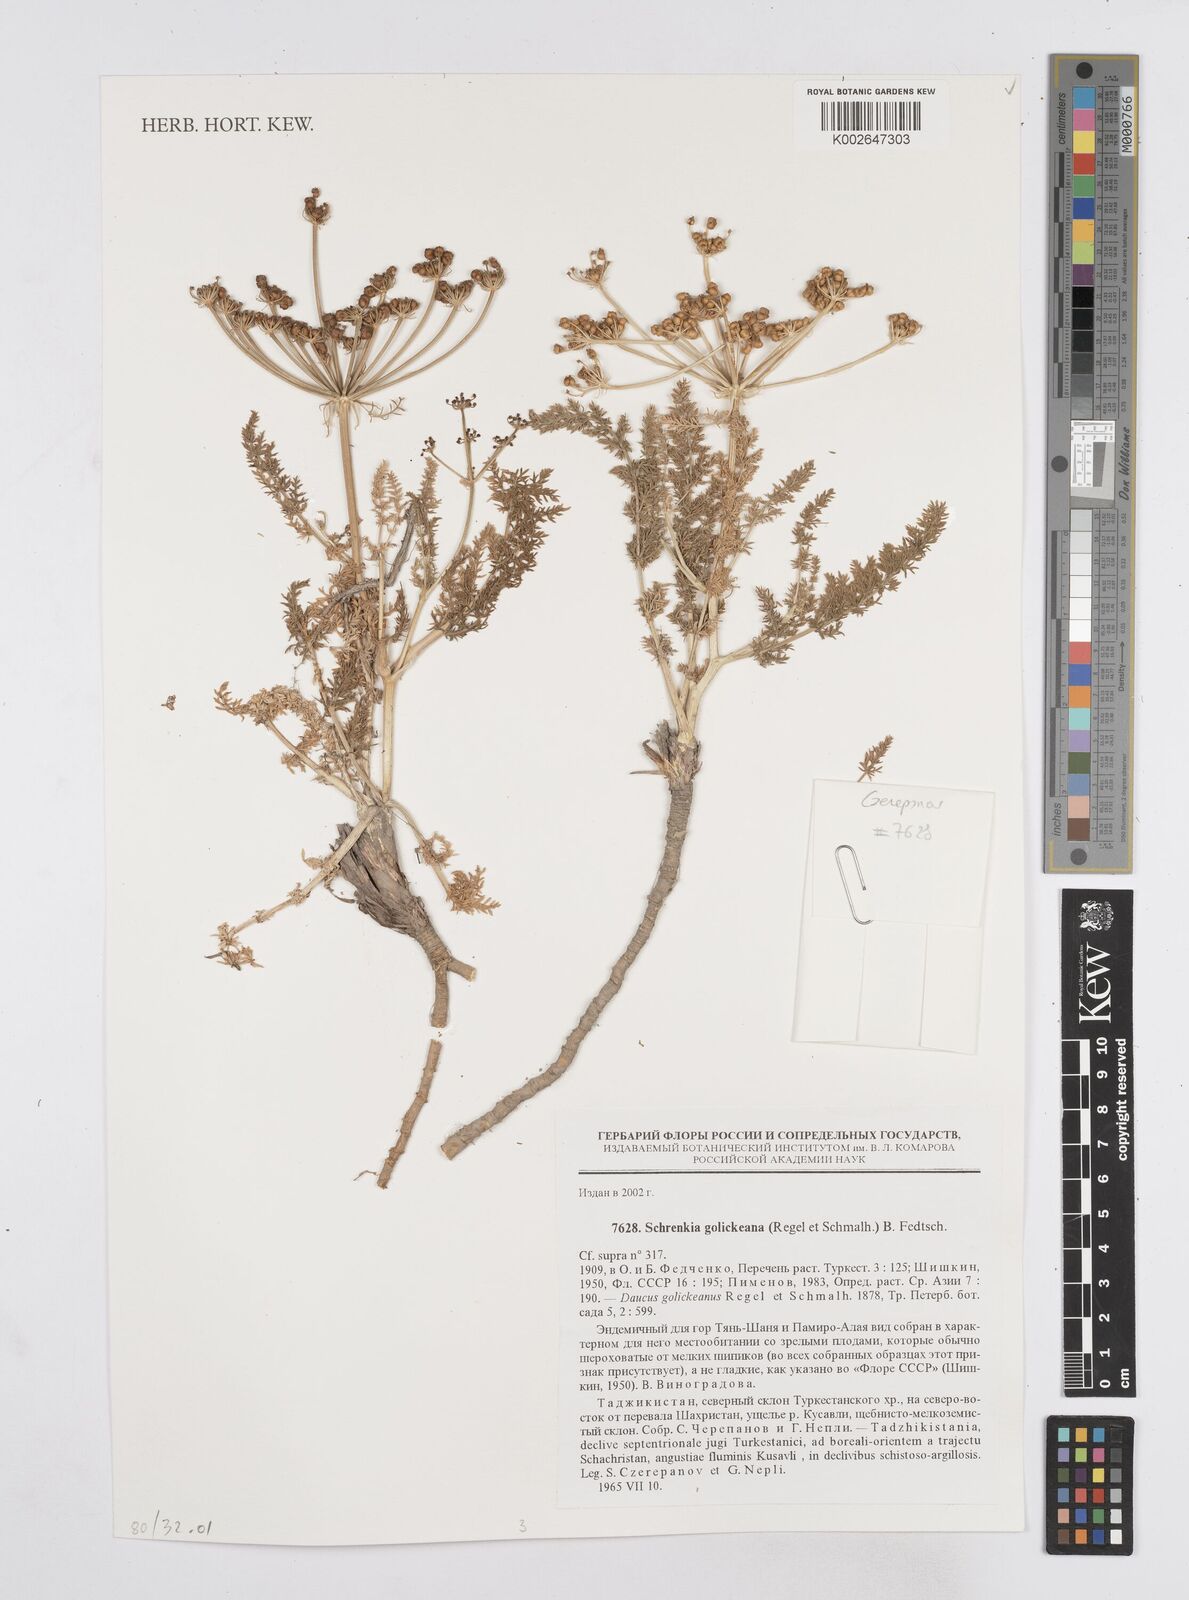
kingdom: Plantae
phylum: Tracheophyta
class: Magnoliopsida
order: Apiales
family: Apiaceae
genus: Schrenkia
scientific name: Schrenkia golickeana
